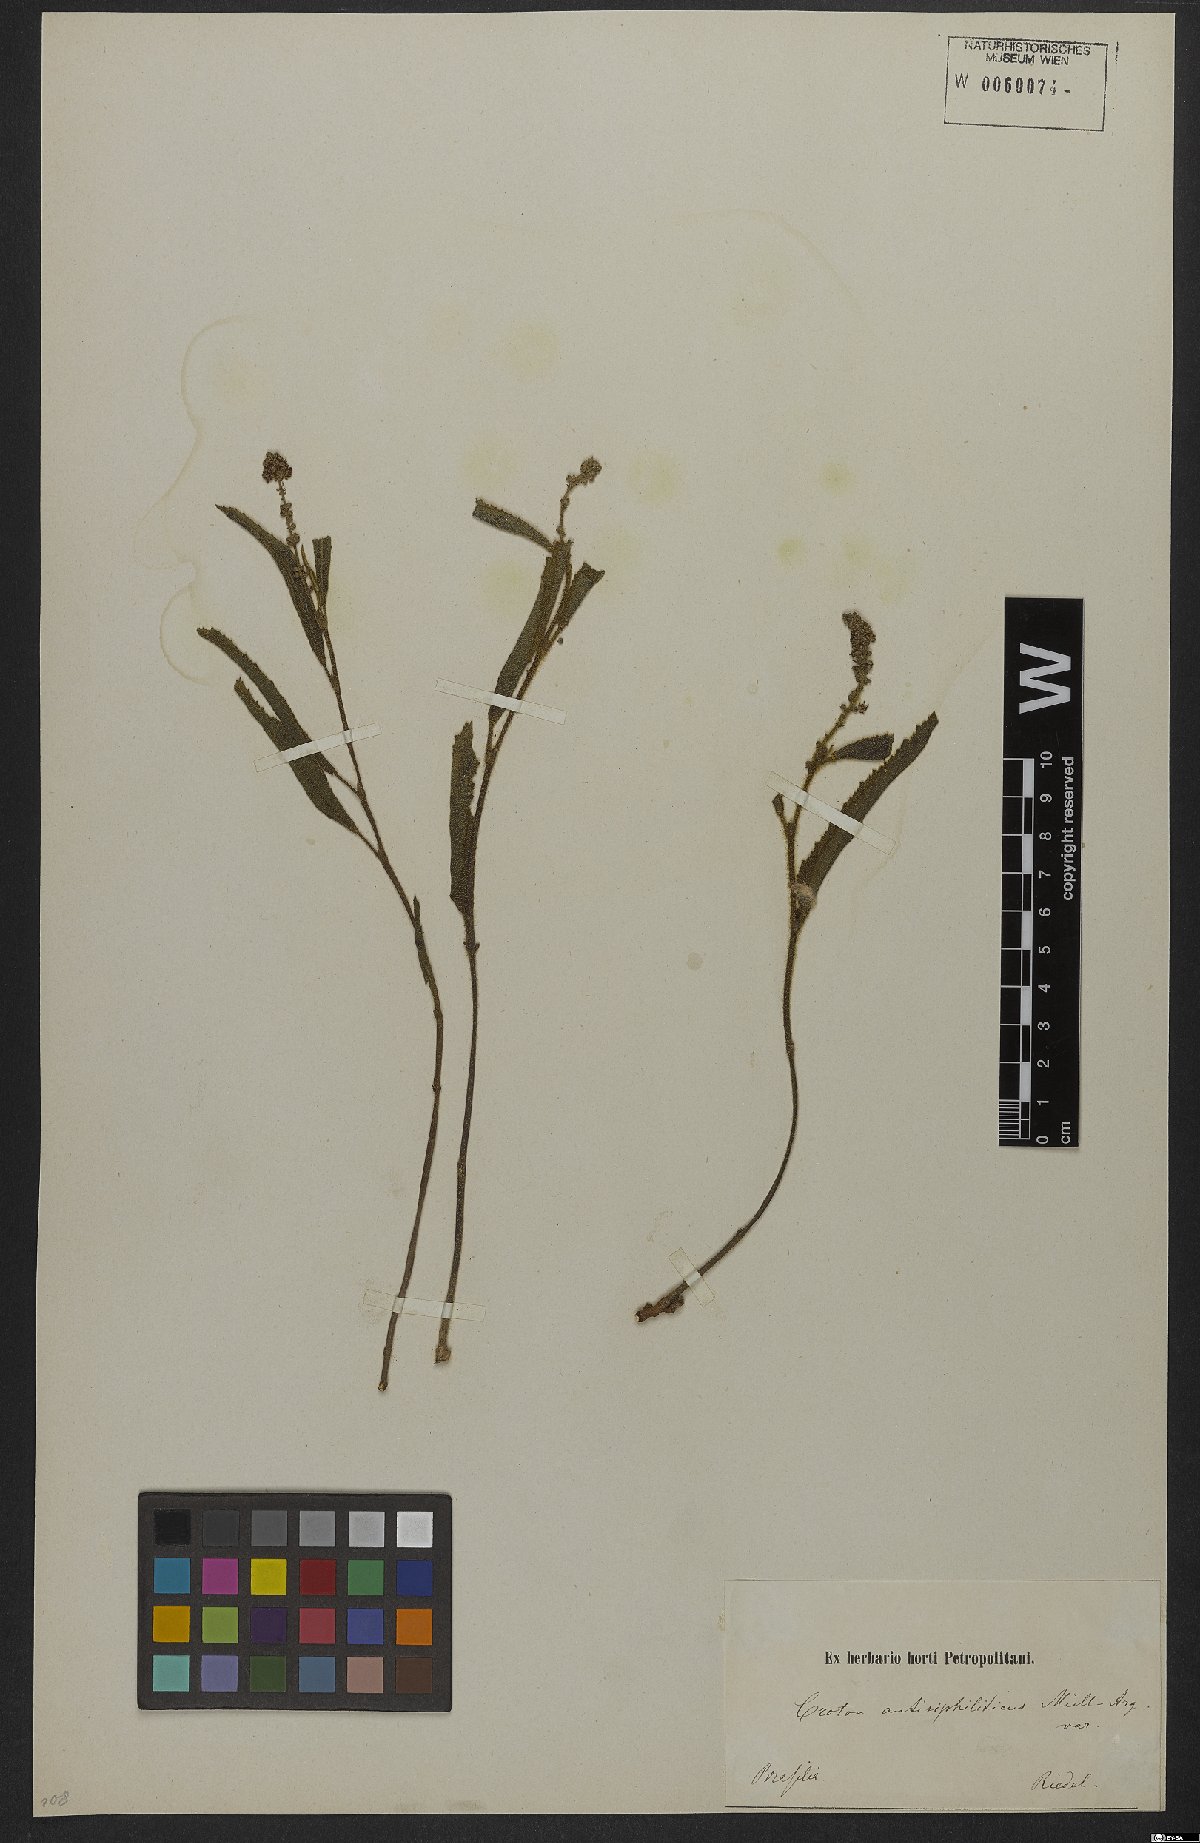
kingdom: Plantae
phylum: Tracheophyta
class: Magnoliopsida
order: Malpighiales
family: Euphorbiaceae
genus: Croton
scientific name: Croton antisyphiliticus
